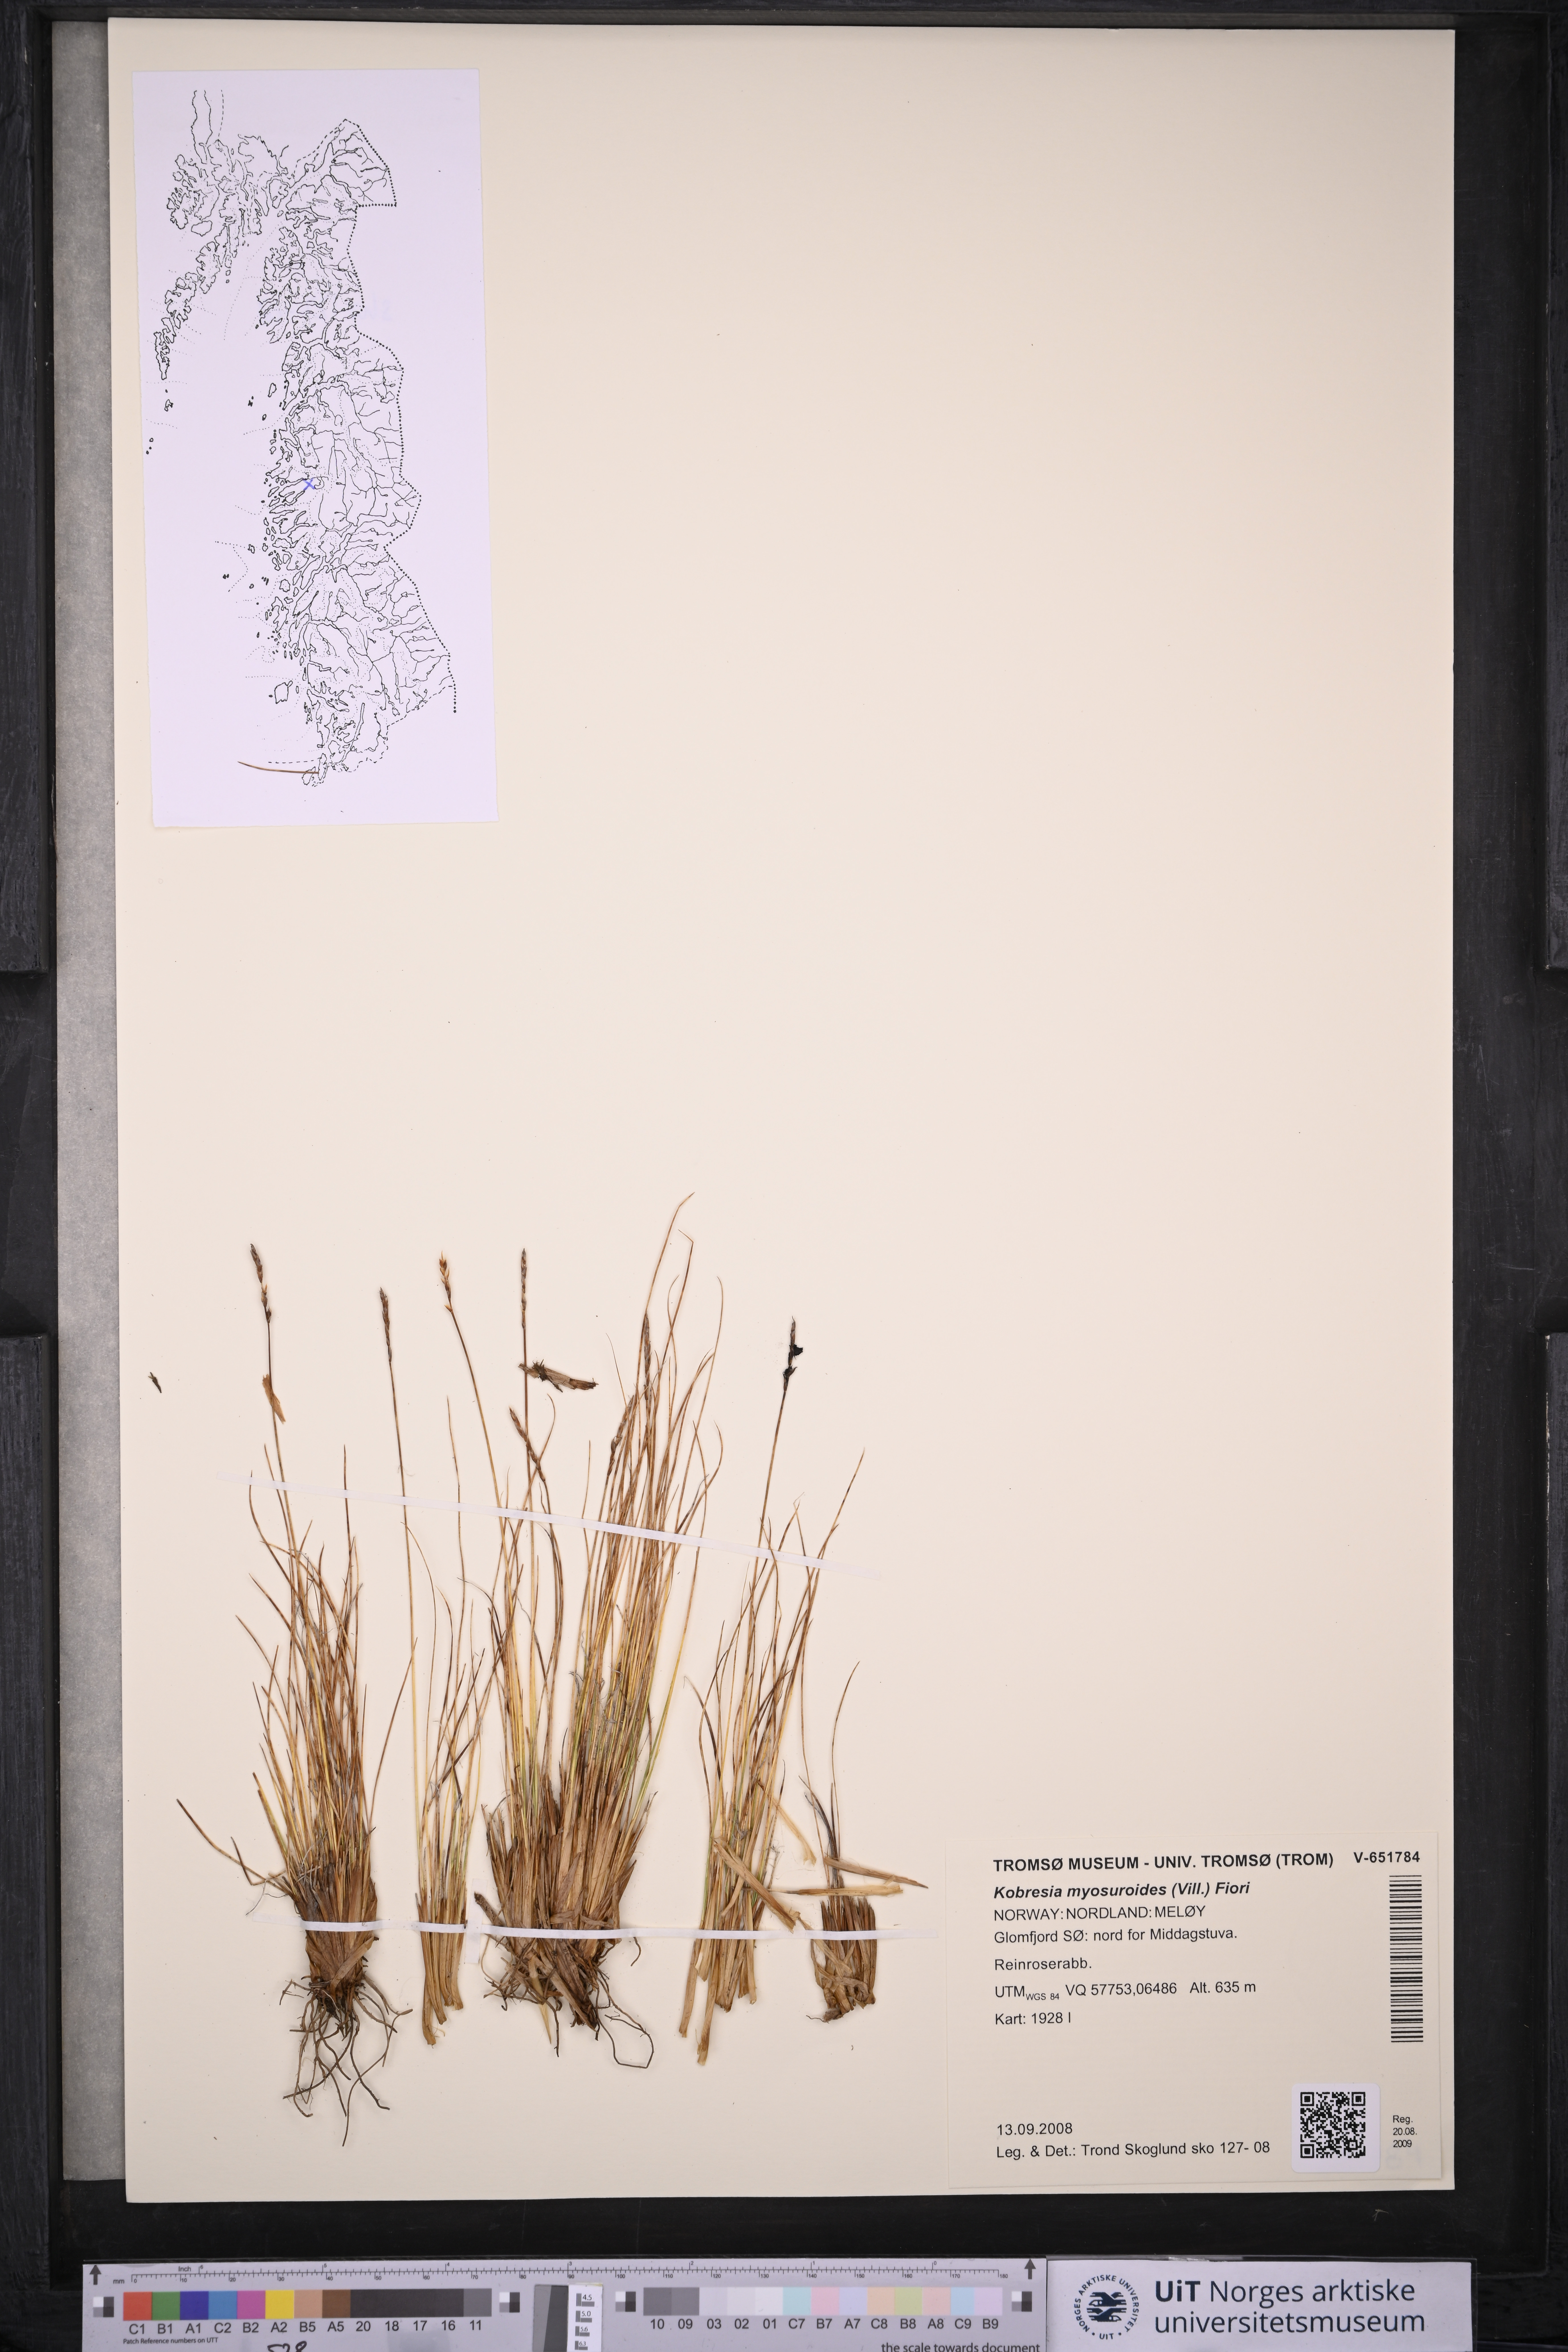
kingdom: Plantae
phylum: Tracheophyta
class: Liliopsida
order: Poales
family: Cyperaceae
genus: Carex
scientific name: Carex myosuroides
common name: Bellard's bog sedge
